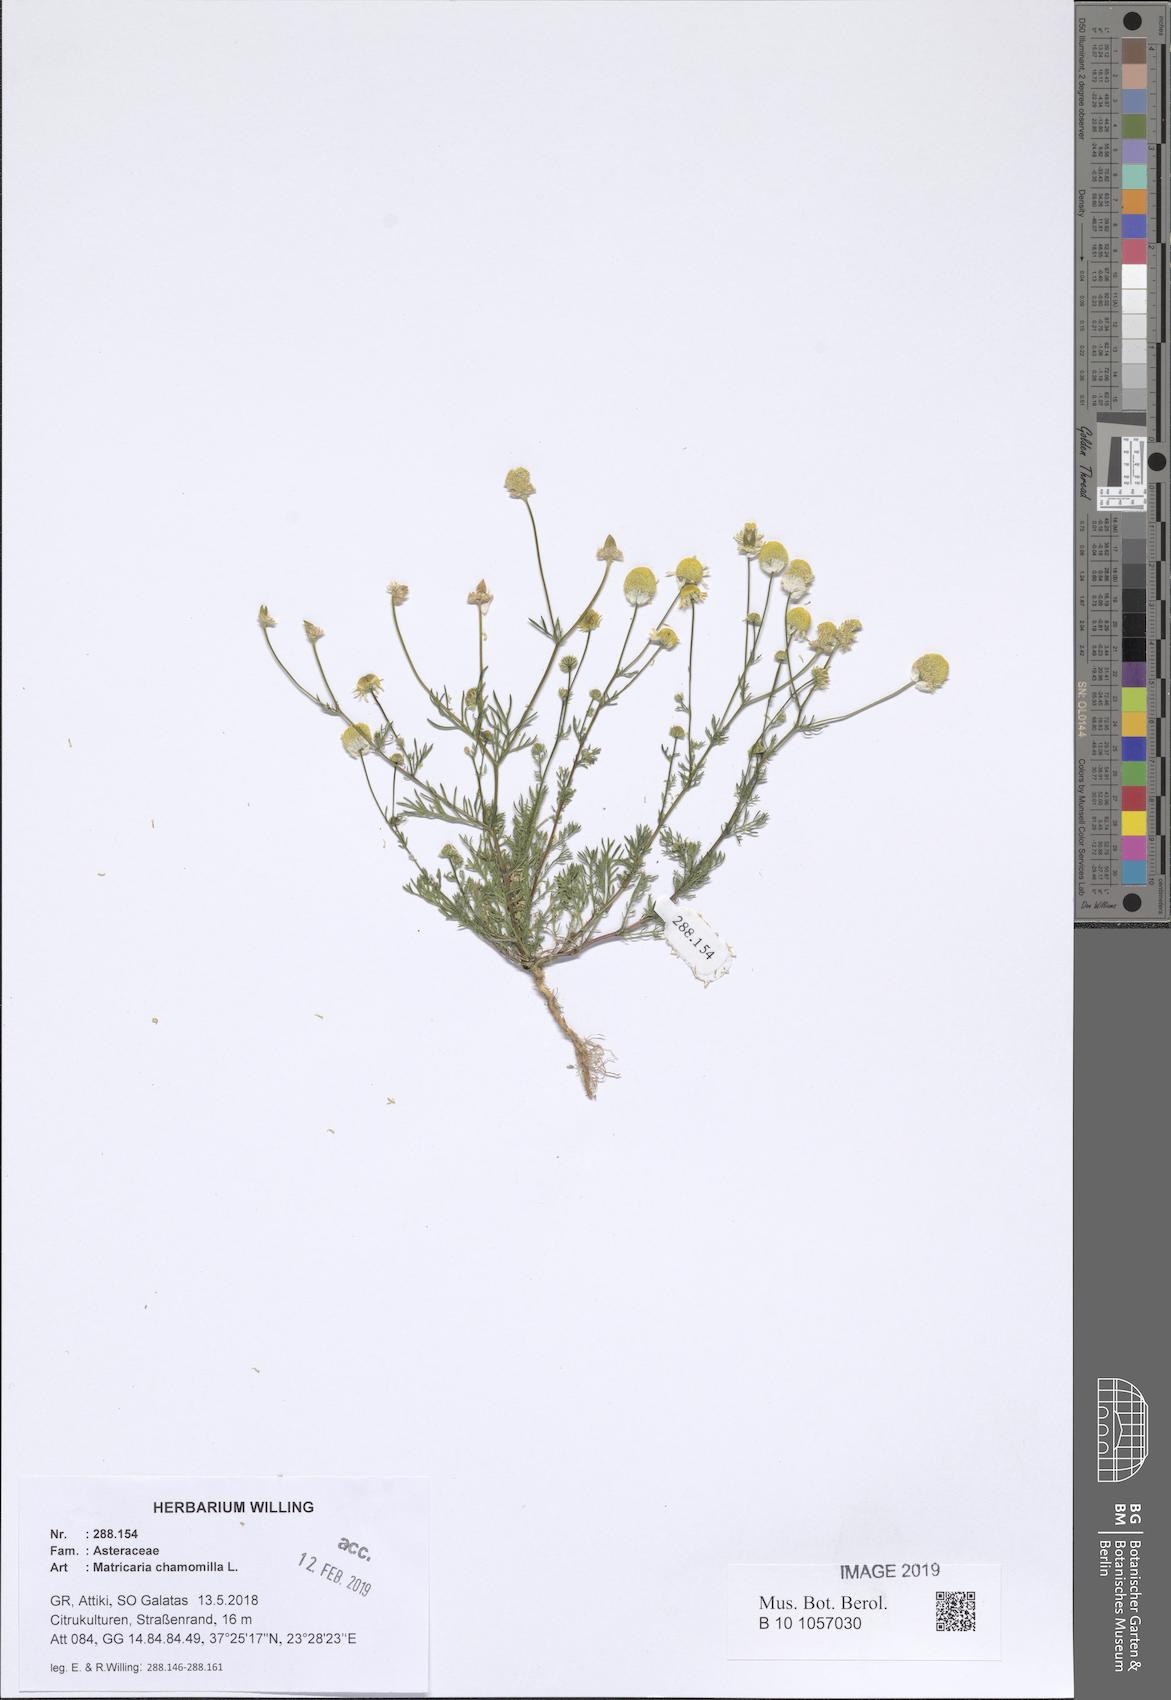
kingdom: Plantae
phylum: Tracheophyta
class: Magnoliopsida
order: Asterales
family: Asteraceae
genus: Matricaria
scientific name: Matricaria chamomilla
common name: Scented mayweed
